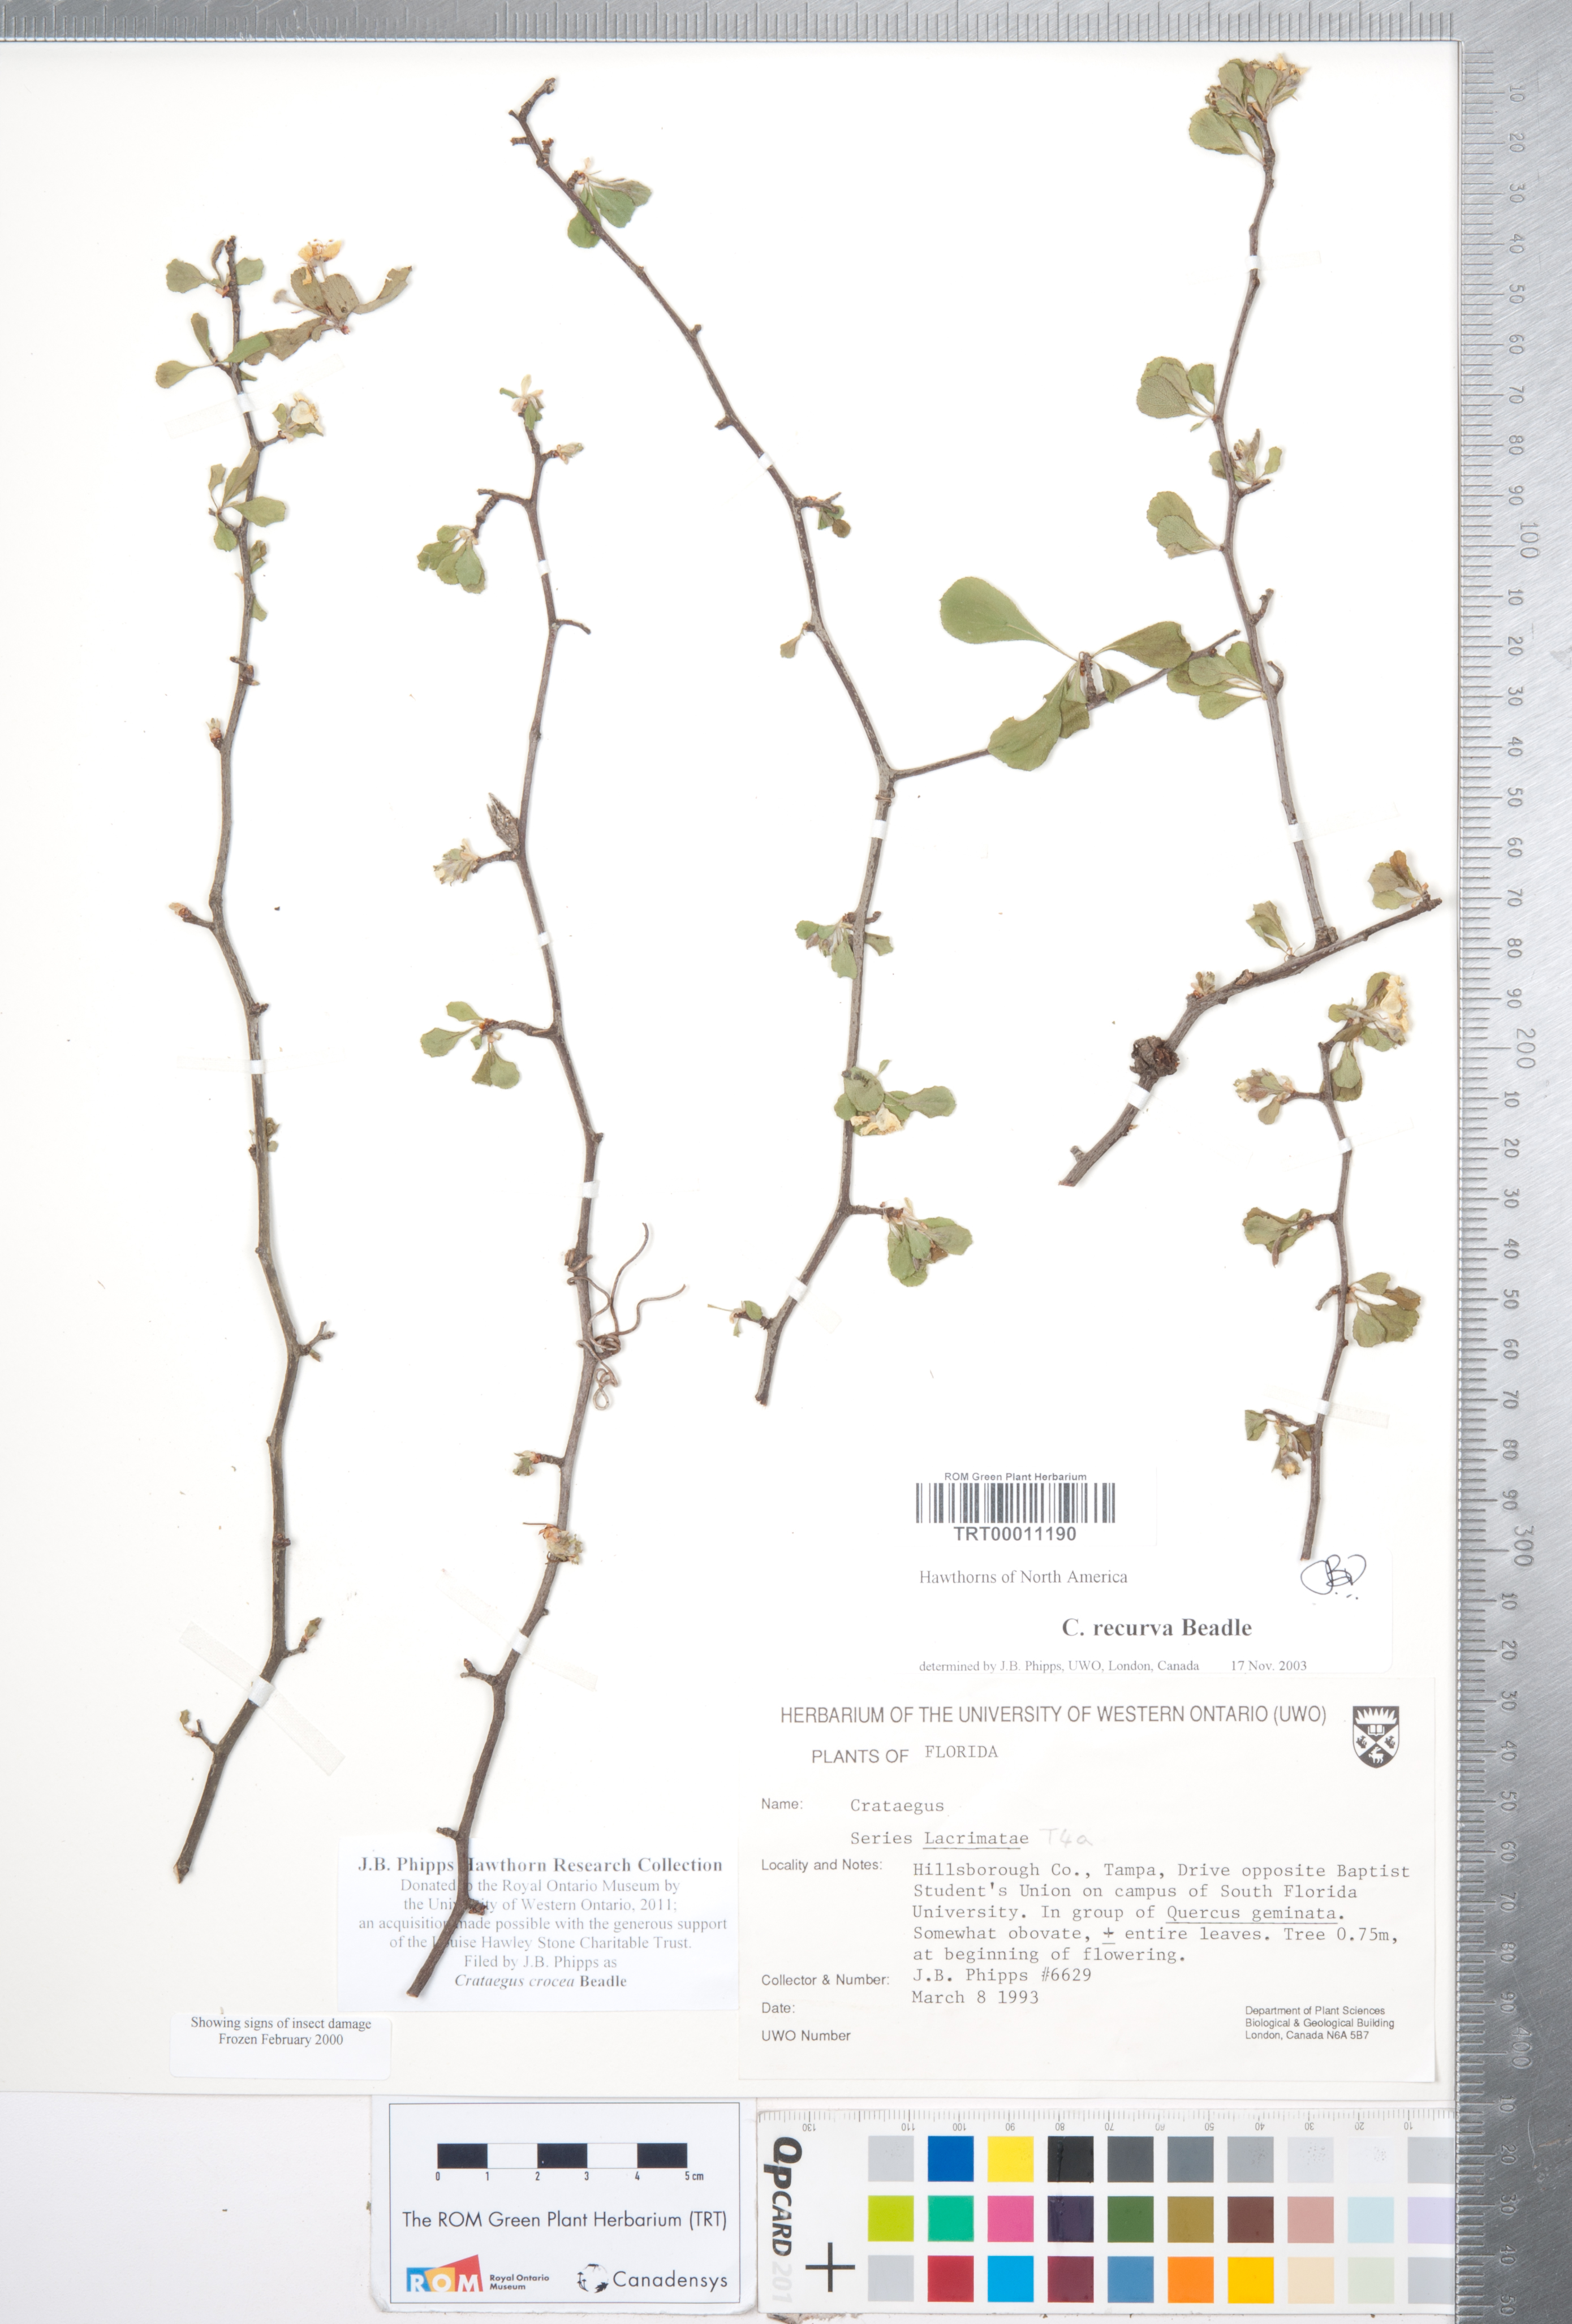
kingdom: Plantae
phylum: Tracheophyta
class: Magnoliopsida
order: Rosales
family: Rosaceae
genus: Crataegus
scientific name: Crataegus lassa
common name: Florida hawthorn
